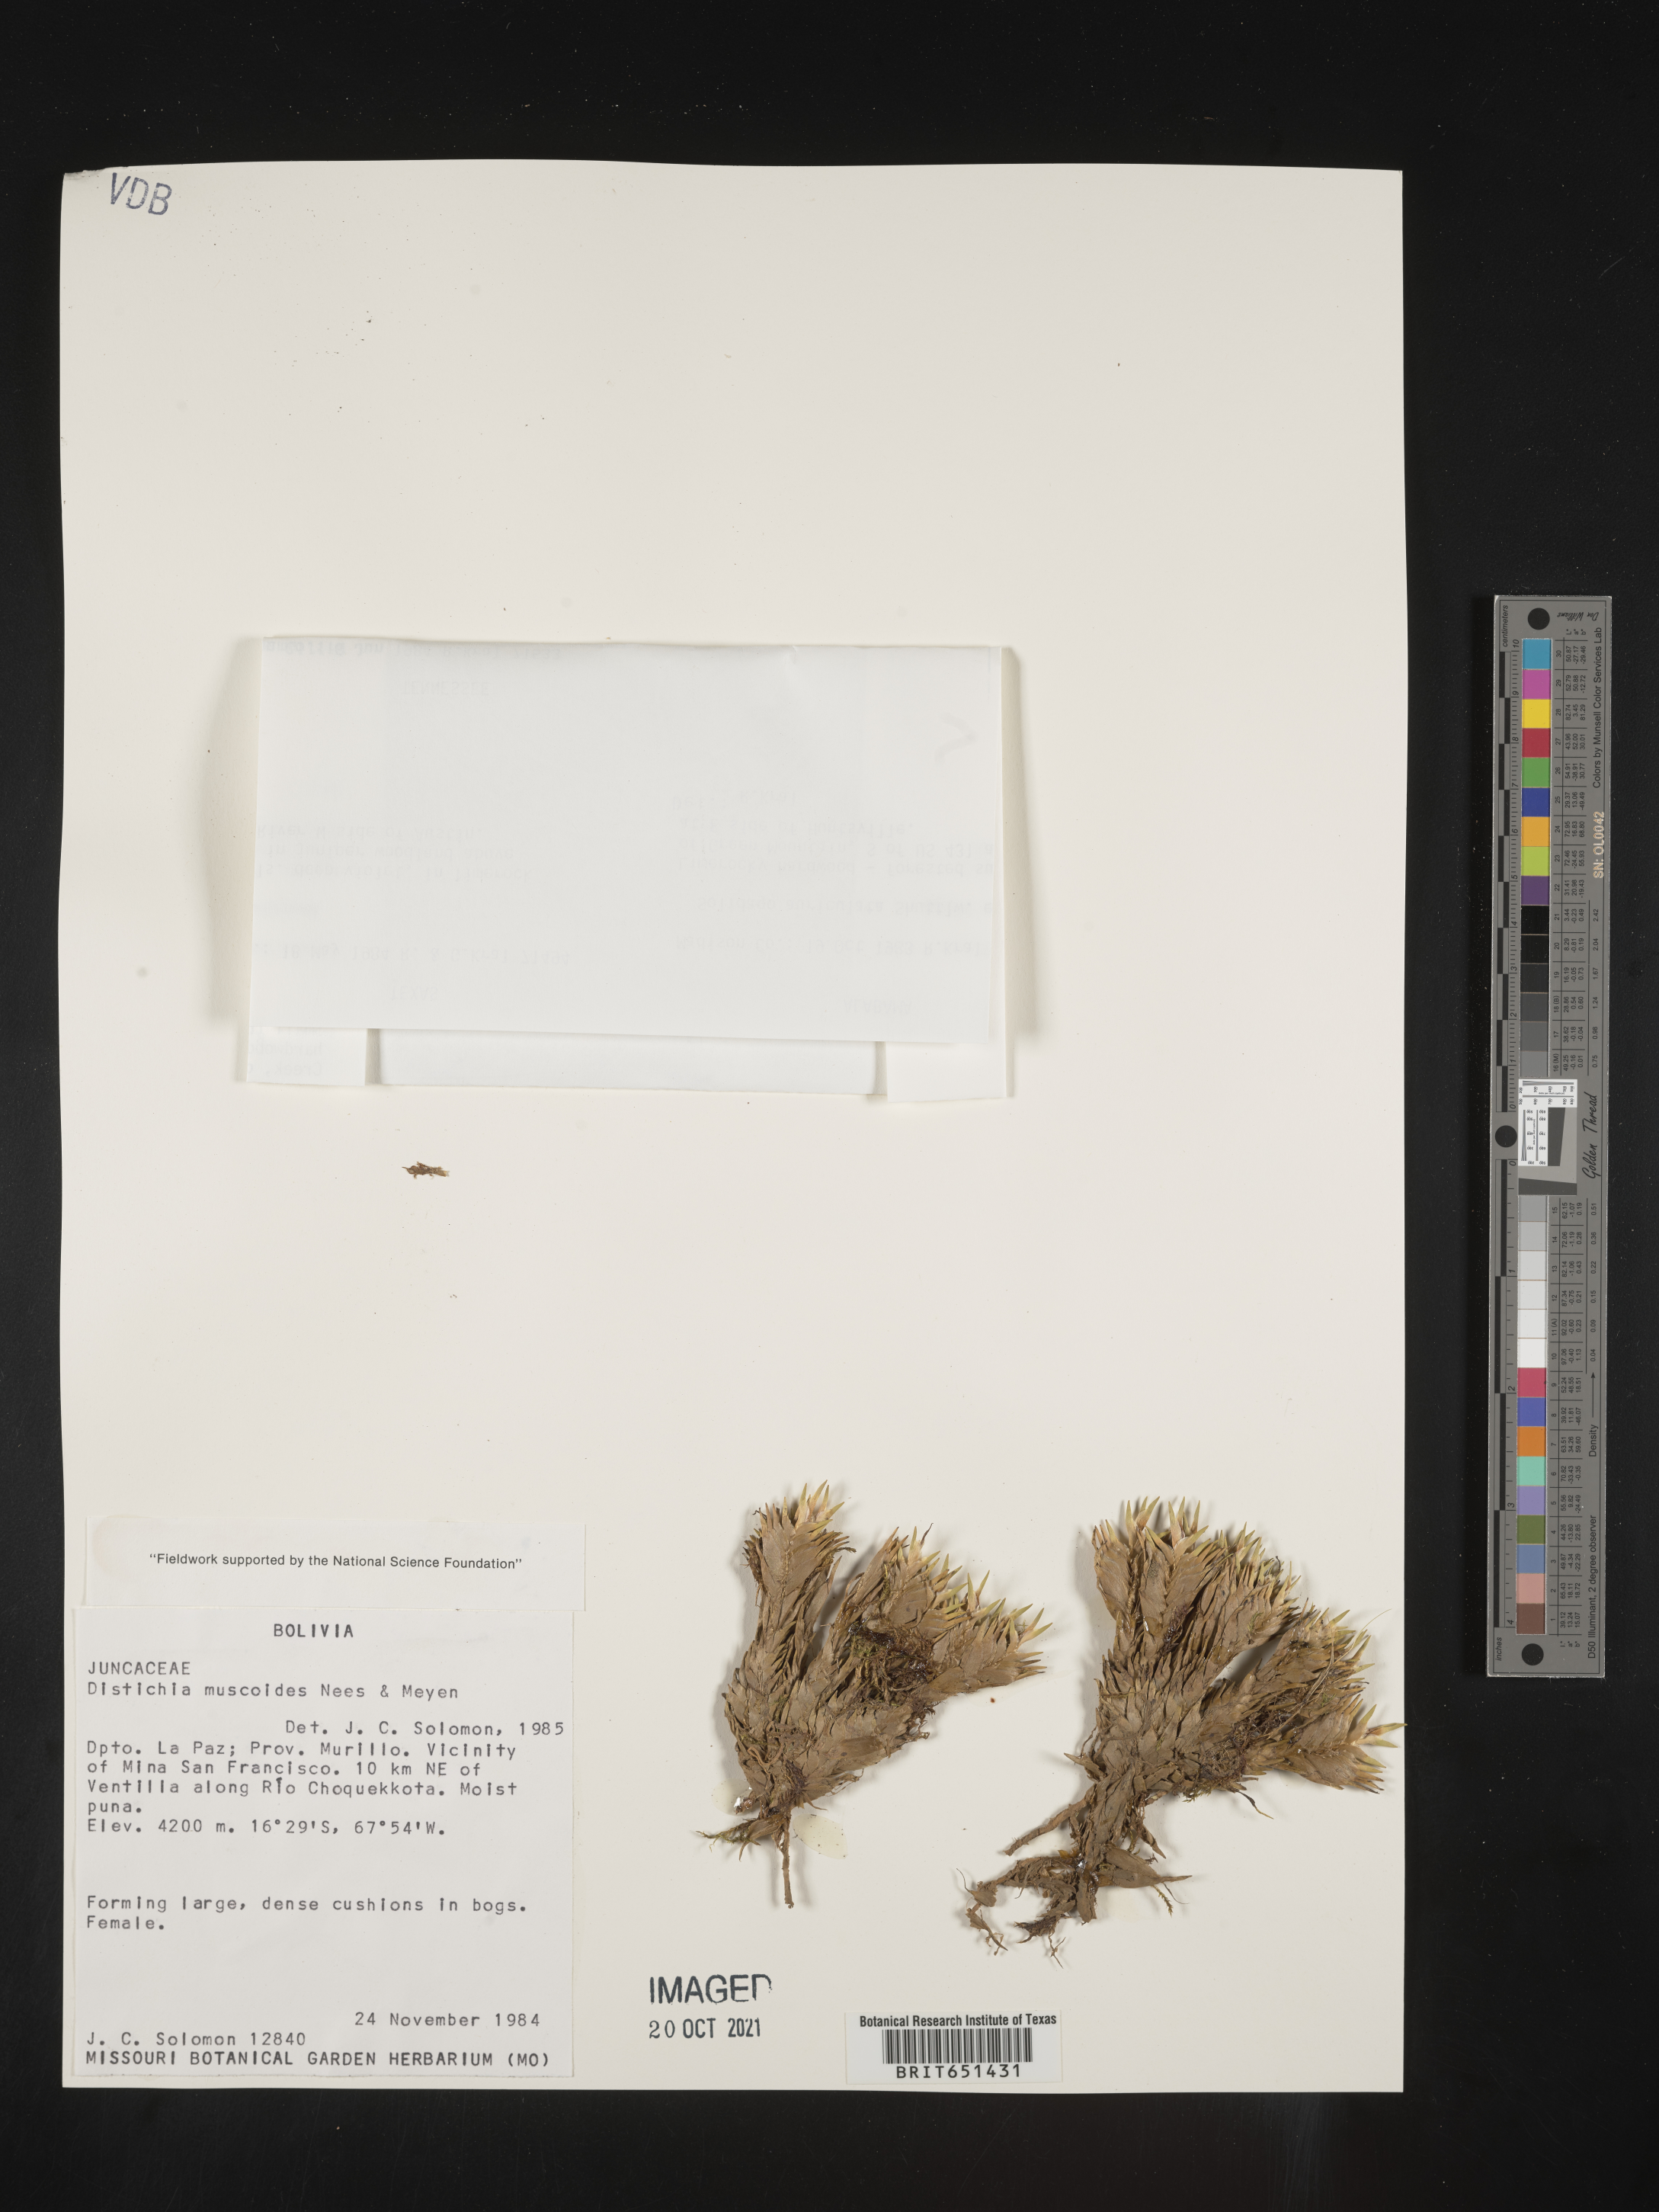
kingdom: Plantae
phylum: Tracheophyta
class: Liliopsida
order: Poales
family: Juncaceae
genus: Distichia
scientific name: Distichia
